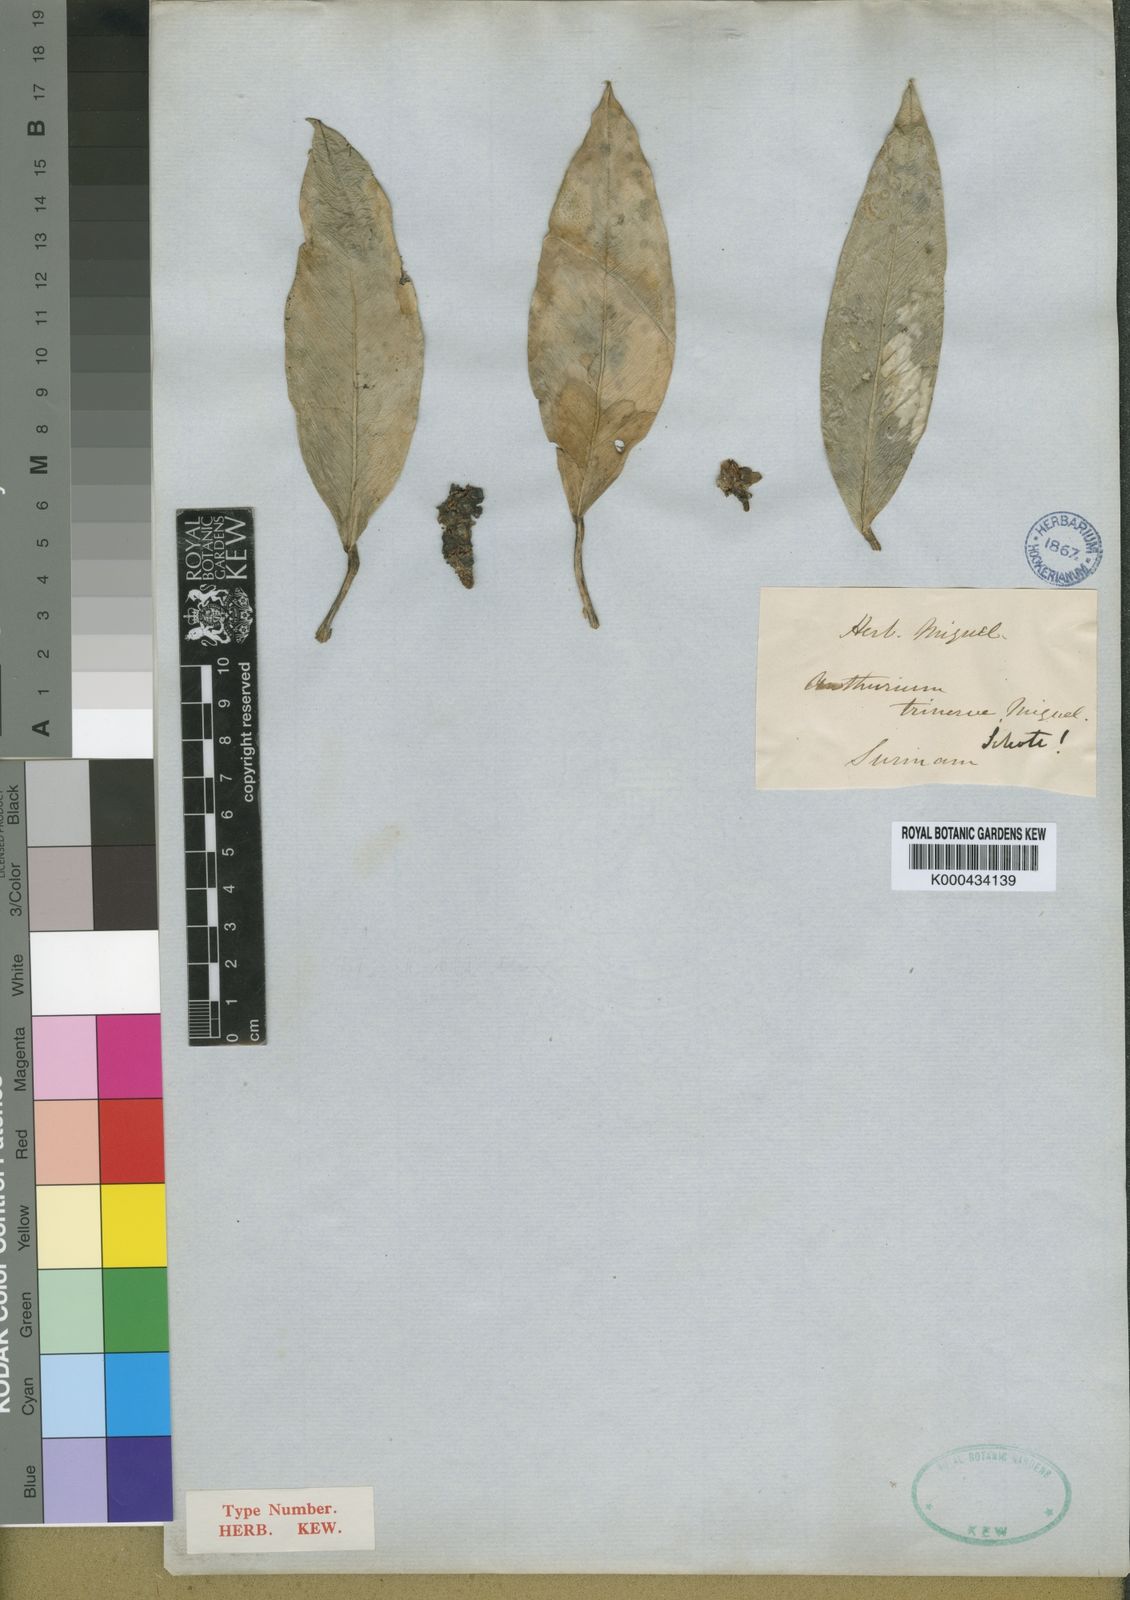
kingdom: Plantae
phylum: Tracheophyta
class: Liliopsida
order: Alismatales
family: Araceae
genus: Anthurium
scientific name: Anthurium obtusum
